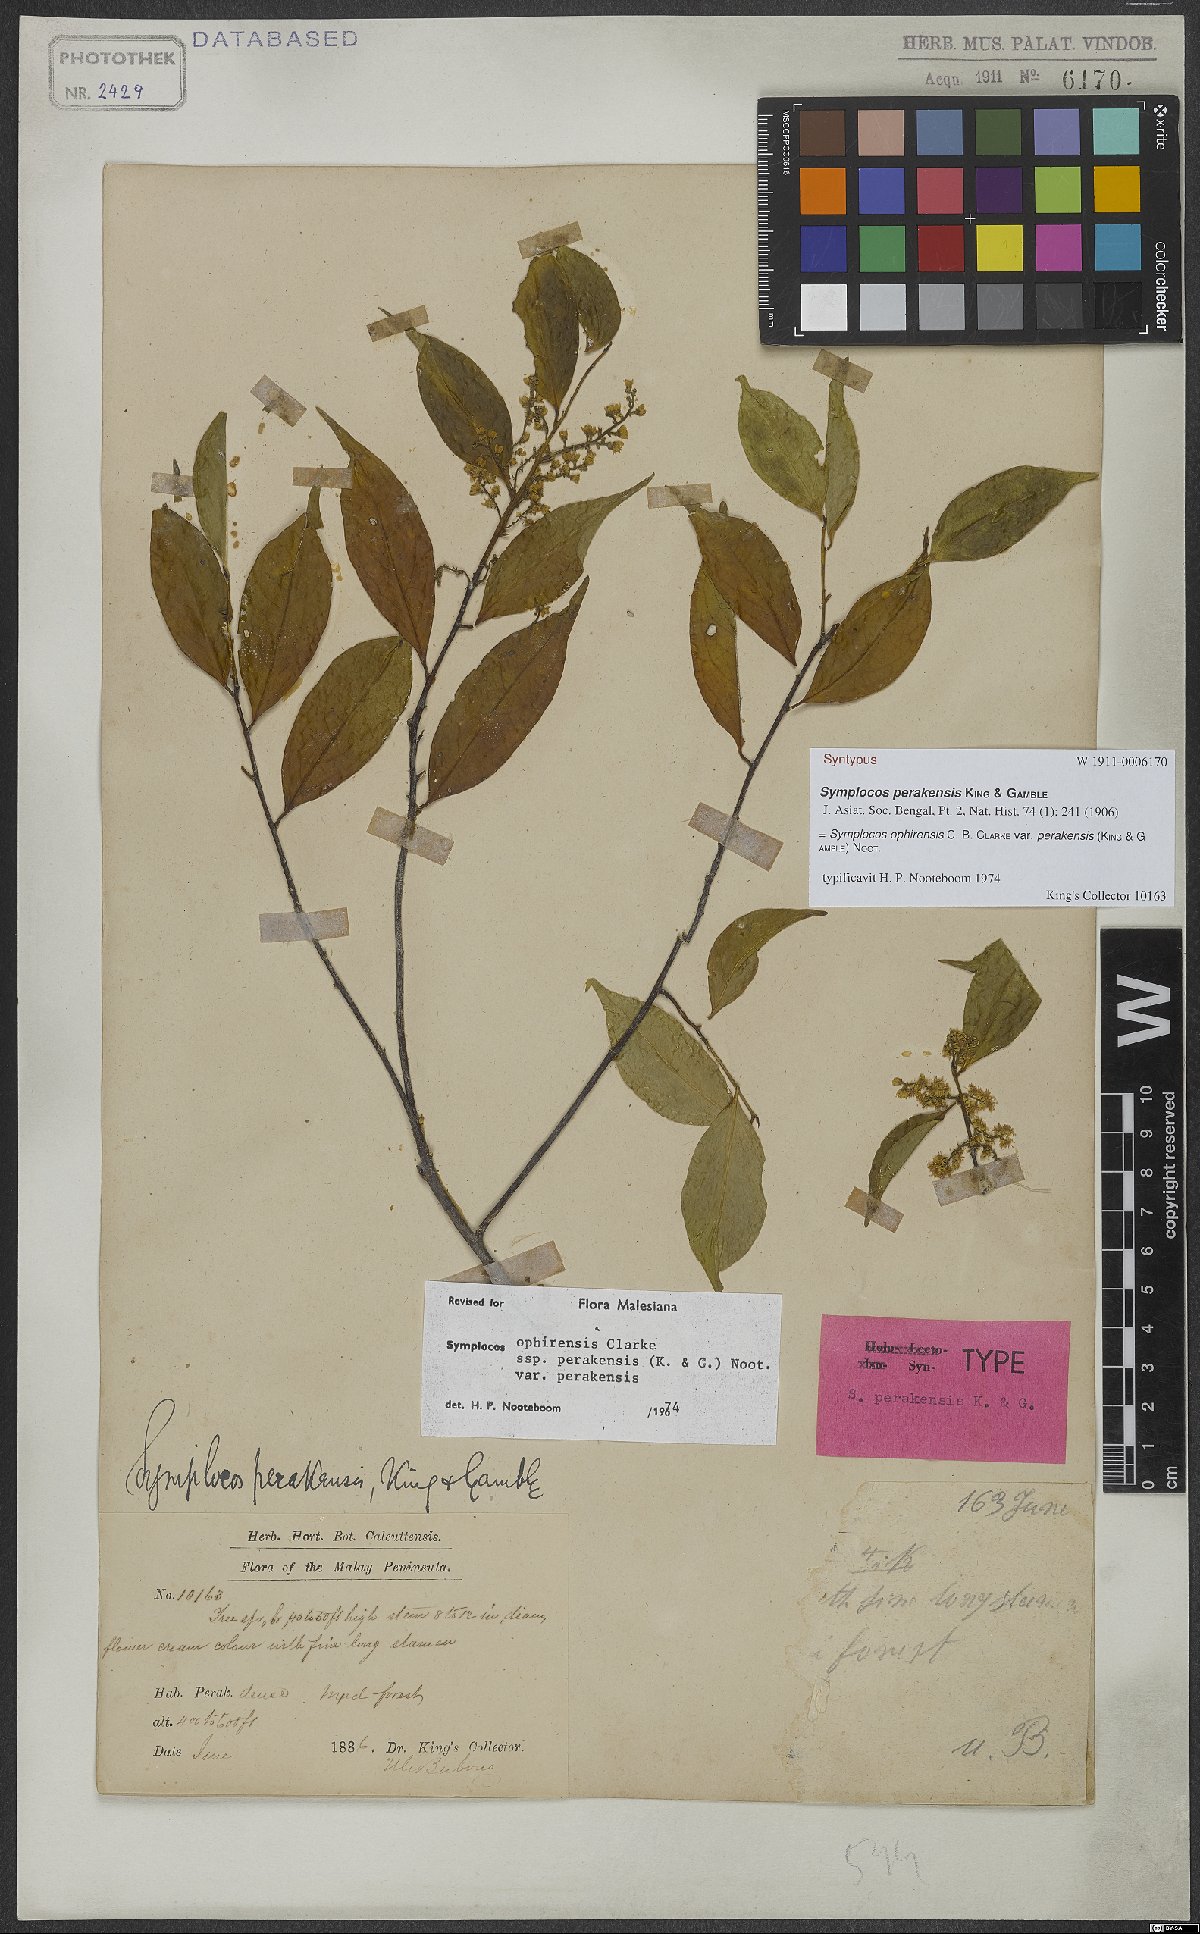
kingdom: Plantae
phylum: Tracheophyta
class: Magnoliopsida
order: Ericales
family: Symplocaceae
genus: Symplocos
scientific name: Symplocos ophirensis
